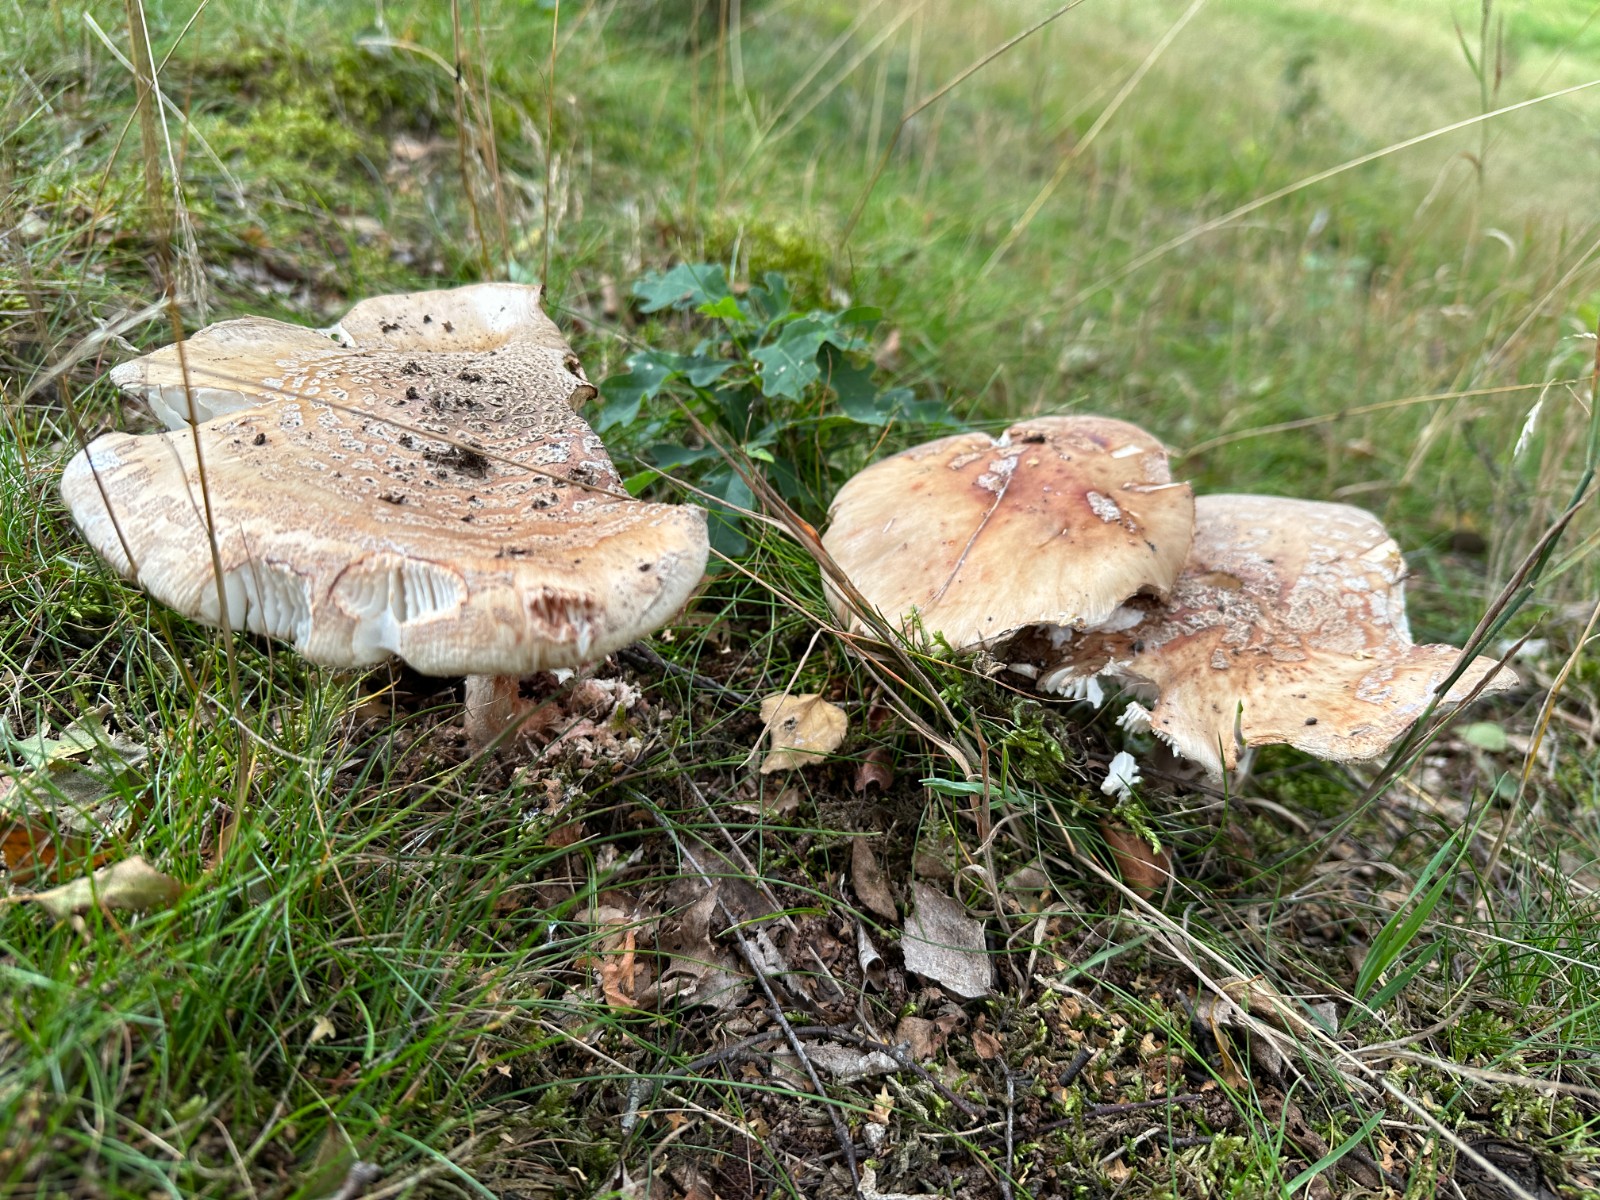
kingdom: Fungi
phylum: Basidiomycota
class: Agaricomycetes
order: Agaricales
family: Amanitaceae
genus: Amanita
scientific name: Amanita rubescens
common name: rødmende fluesvamp
